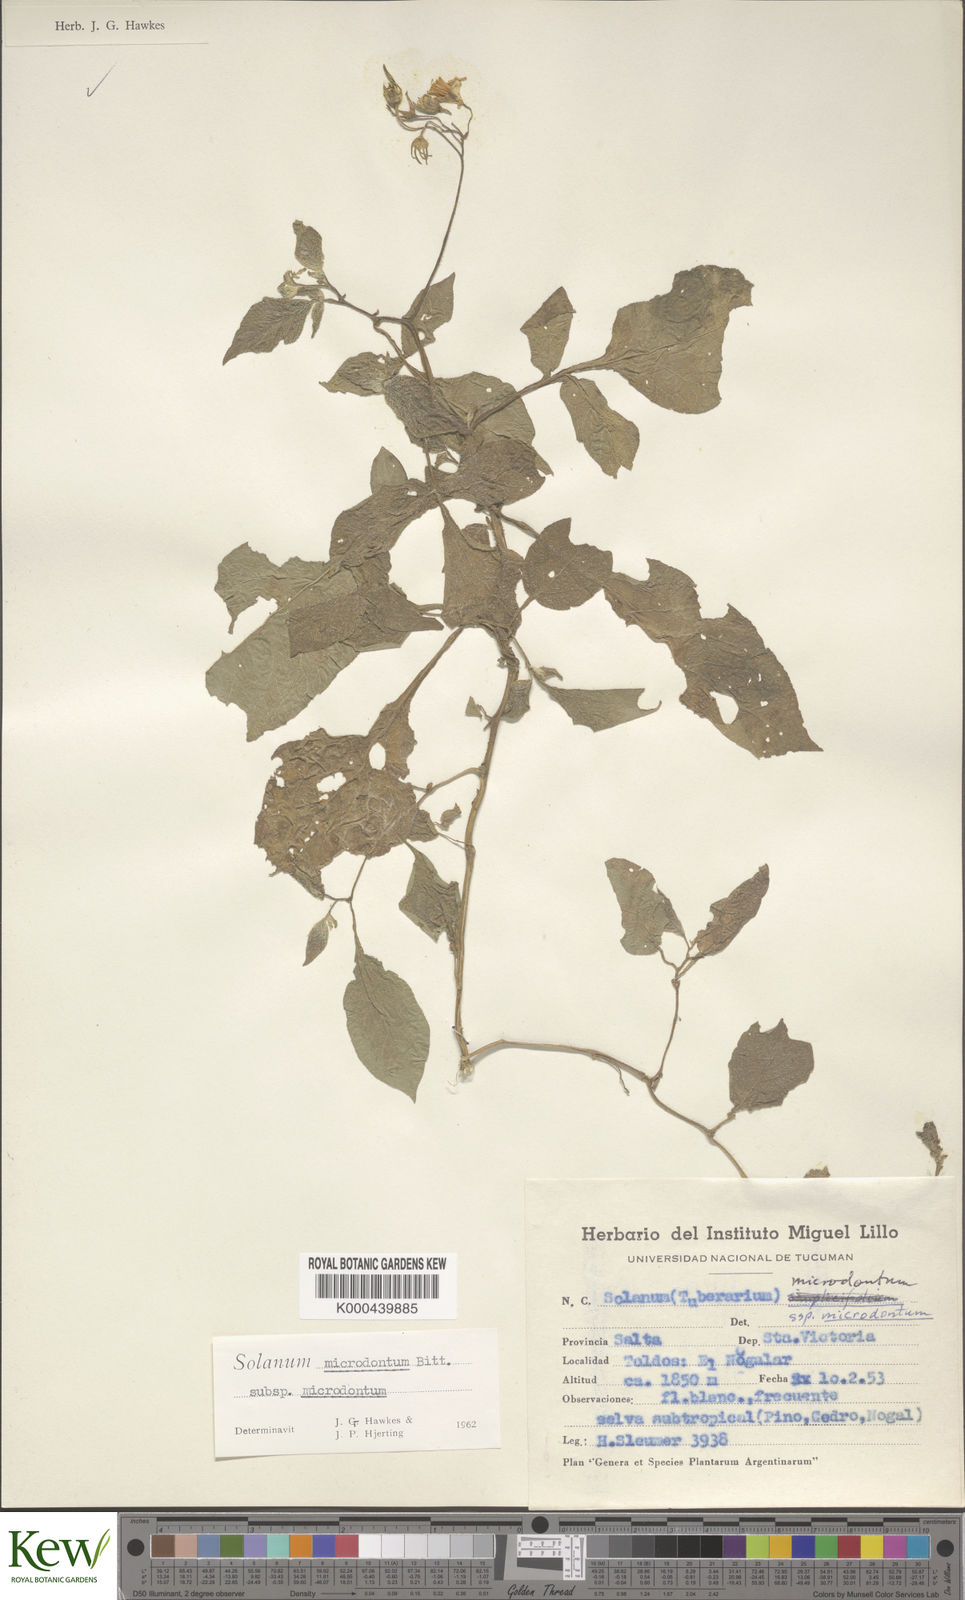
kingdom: Plantae
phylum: Tracheophyta
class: Magnoliopsida
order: Solanales
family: Solanaceae
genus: Solanum
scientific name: Solanum microdontum
